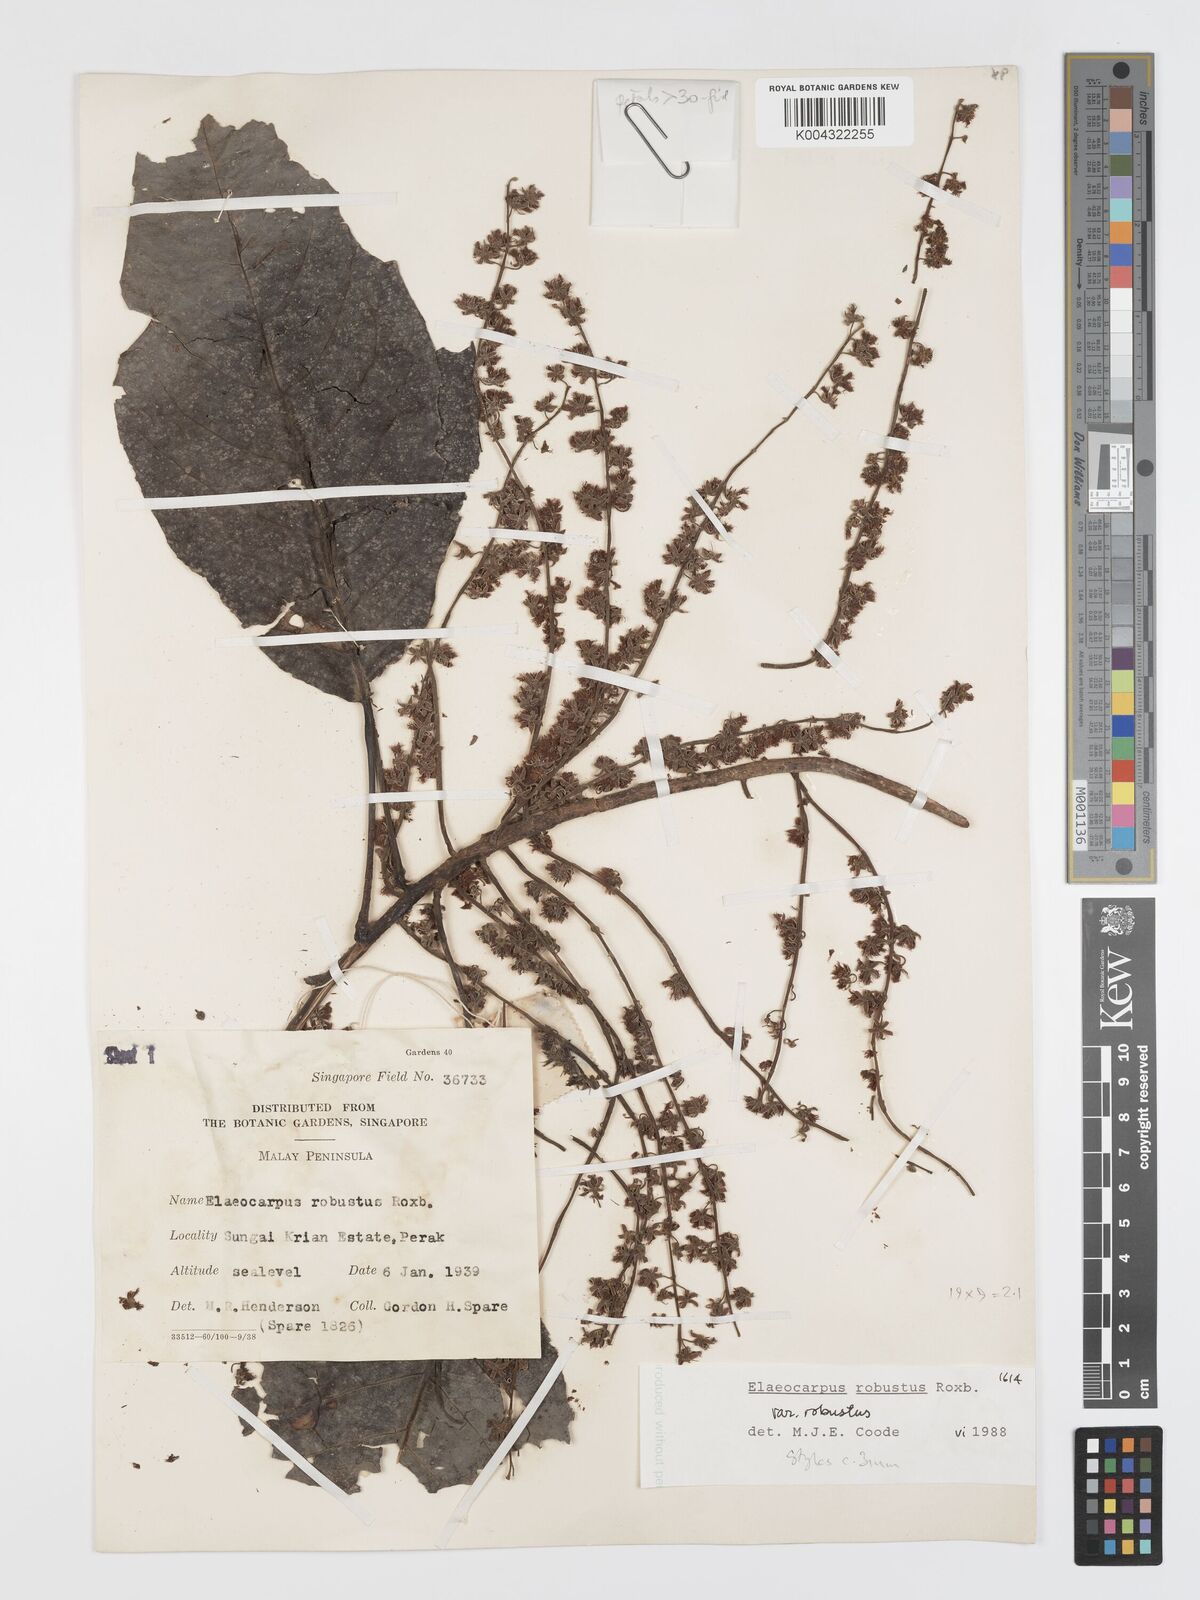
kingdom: Plantae
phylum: Tracheophyta
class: Magnoliopsida
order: Oxalidales
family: Elaeocarpaceae
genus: Elaeocarpus
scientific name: Elaeocarpus robustus
